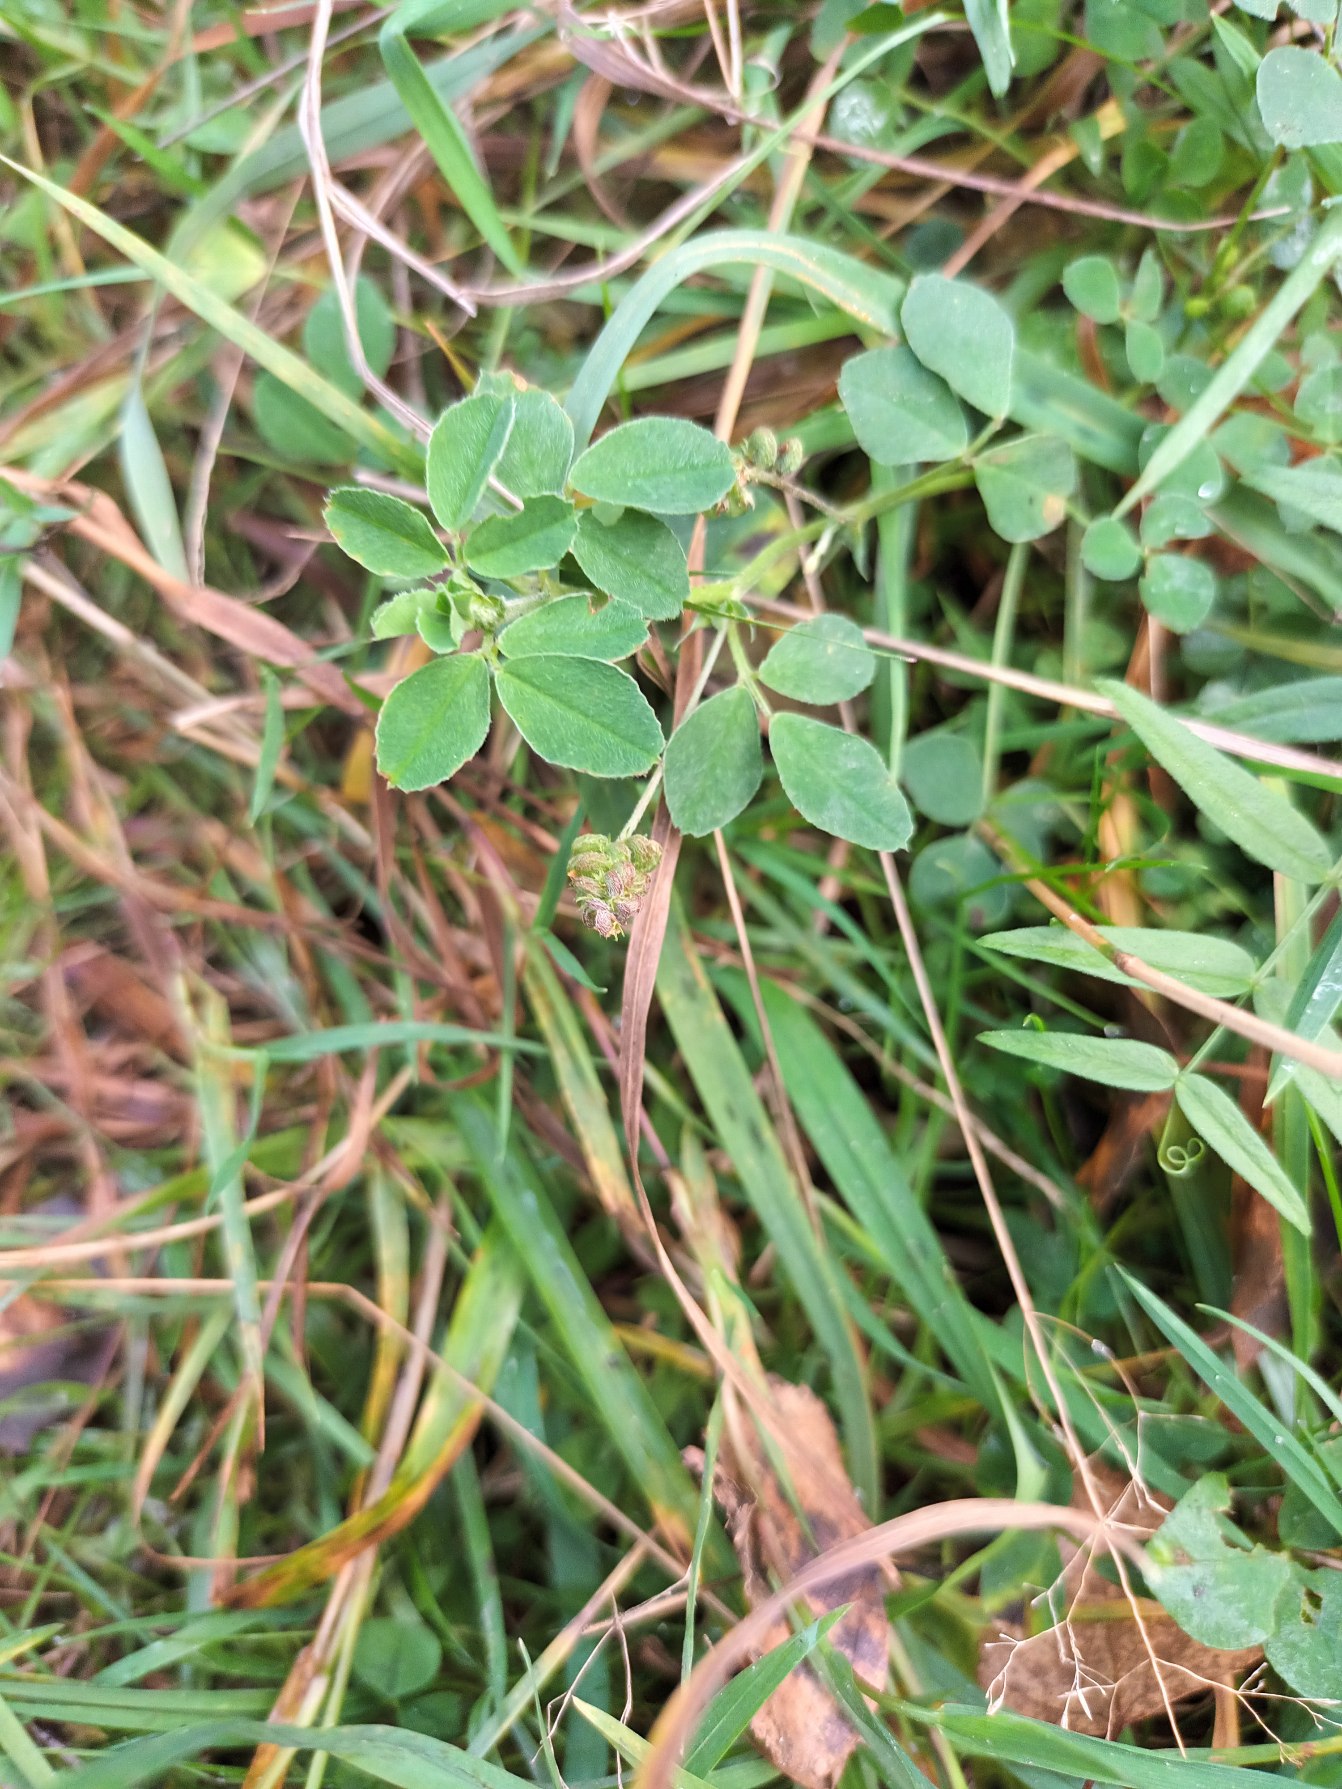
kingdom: Plantae
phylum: Tracheophyta
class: Magnoliopsida
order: Fabales
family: Fabaceae
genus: Medicago
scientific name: Medicago lupulina
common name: Humle-sneglebælg
